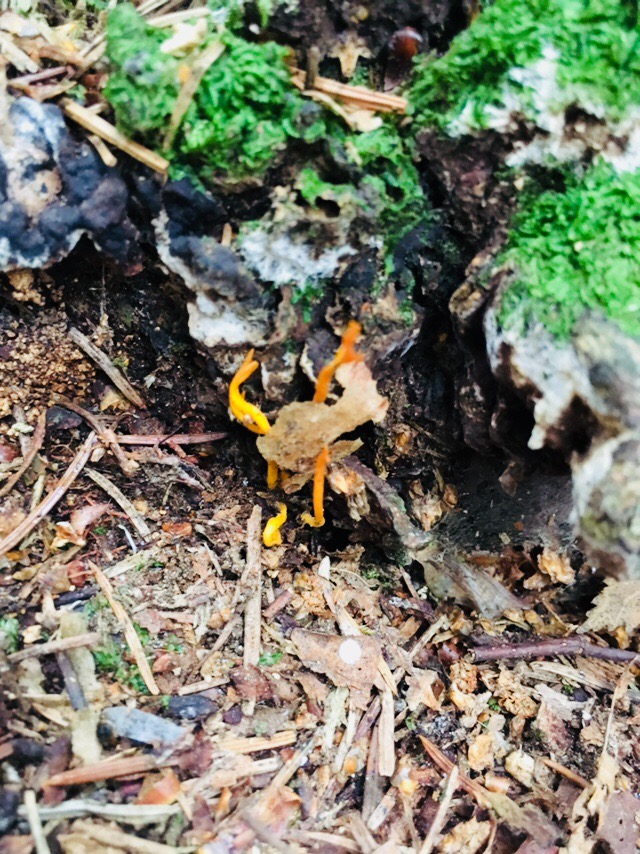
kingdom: Fungi
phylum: Basidiomycota
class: Dacrymycetes
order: Dacrymycetales
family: Dacrymycetaceae
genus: Calocera
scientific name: Calocera viscosa
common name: almindelig guldgaffel
